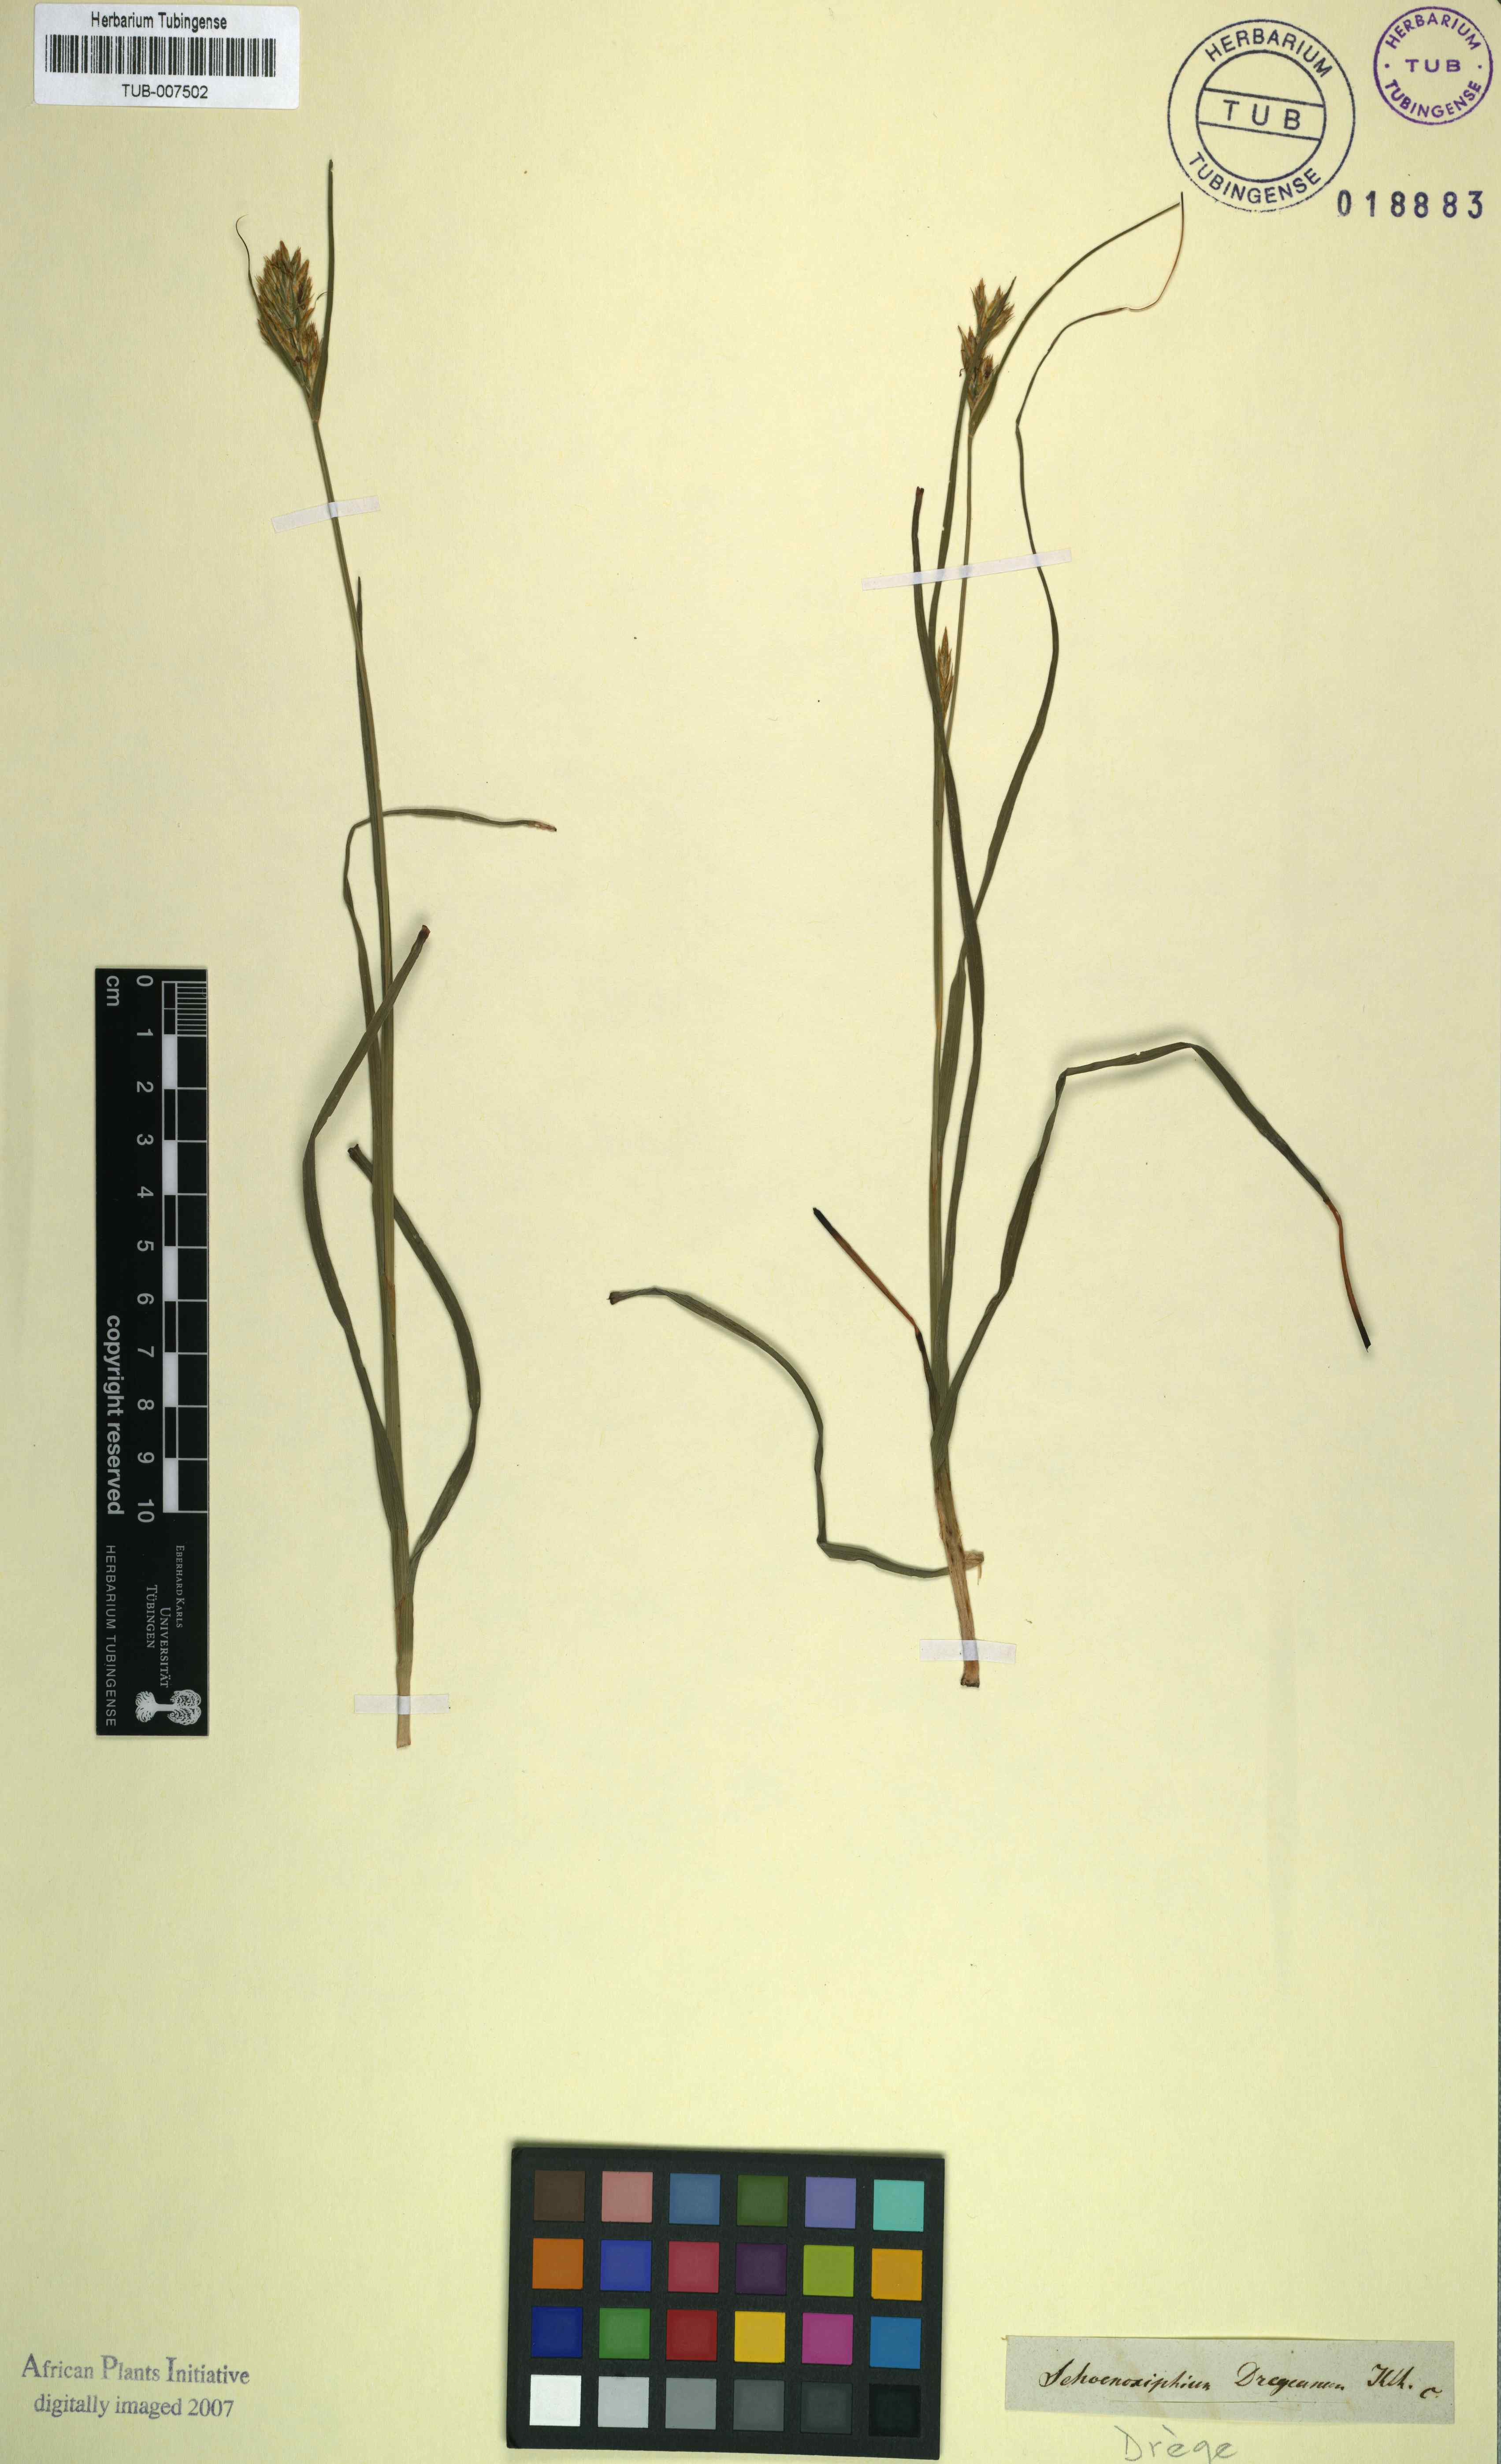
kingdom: Plantae
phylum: Tracheophyta
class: Liliopsida
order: Poales
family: Cyperaceae
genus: Carex
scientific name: Carex ludwigii
